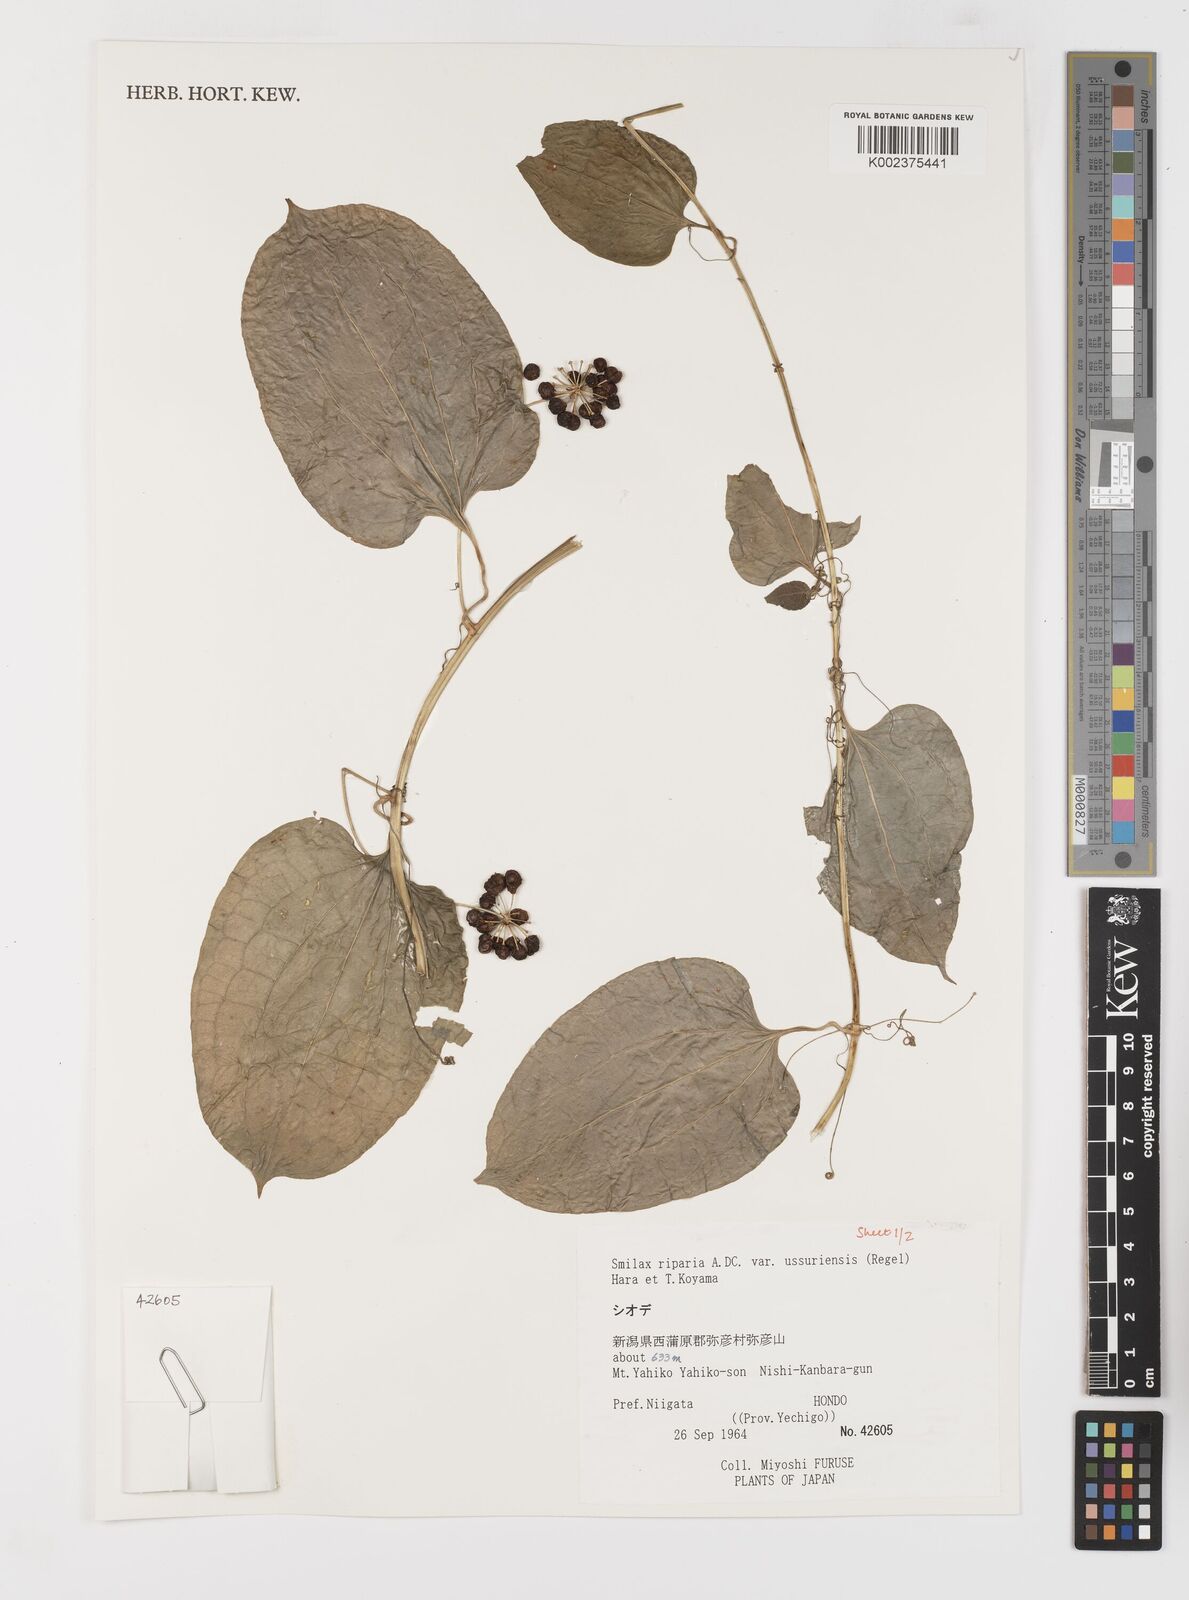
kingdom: Plantae
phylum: Tracheophyta
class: Liliopsida
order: Liliales
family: Smilacaceae
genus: Smilax
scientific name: Smilax riparia
